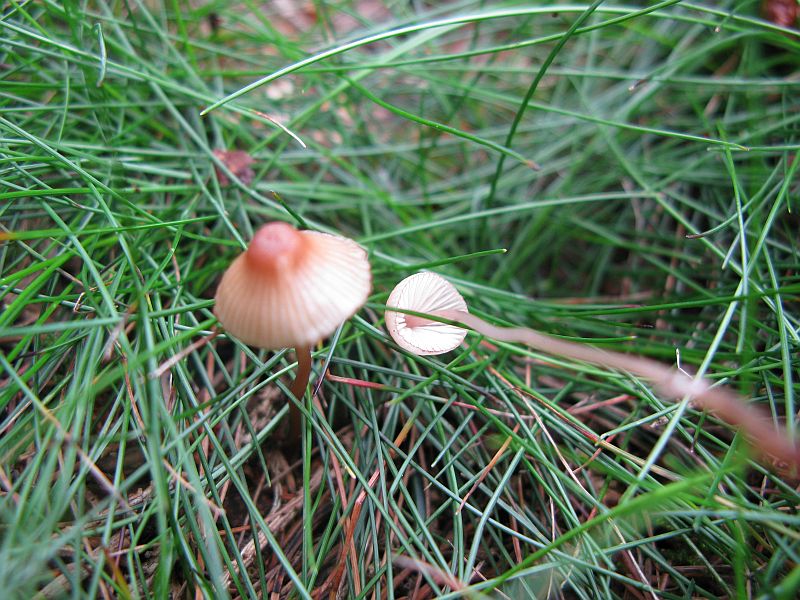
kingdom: Fungi
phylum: Basidiomycota
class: Agaricomycetes
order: Agaricales
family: Mycenaceae
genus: Mycena
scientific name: Mycena sanguinolenta
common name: rødmælket huesvamp
